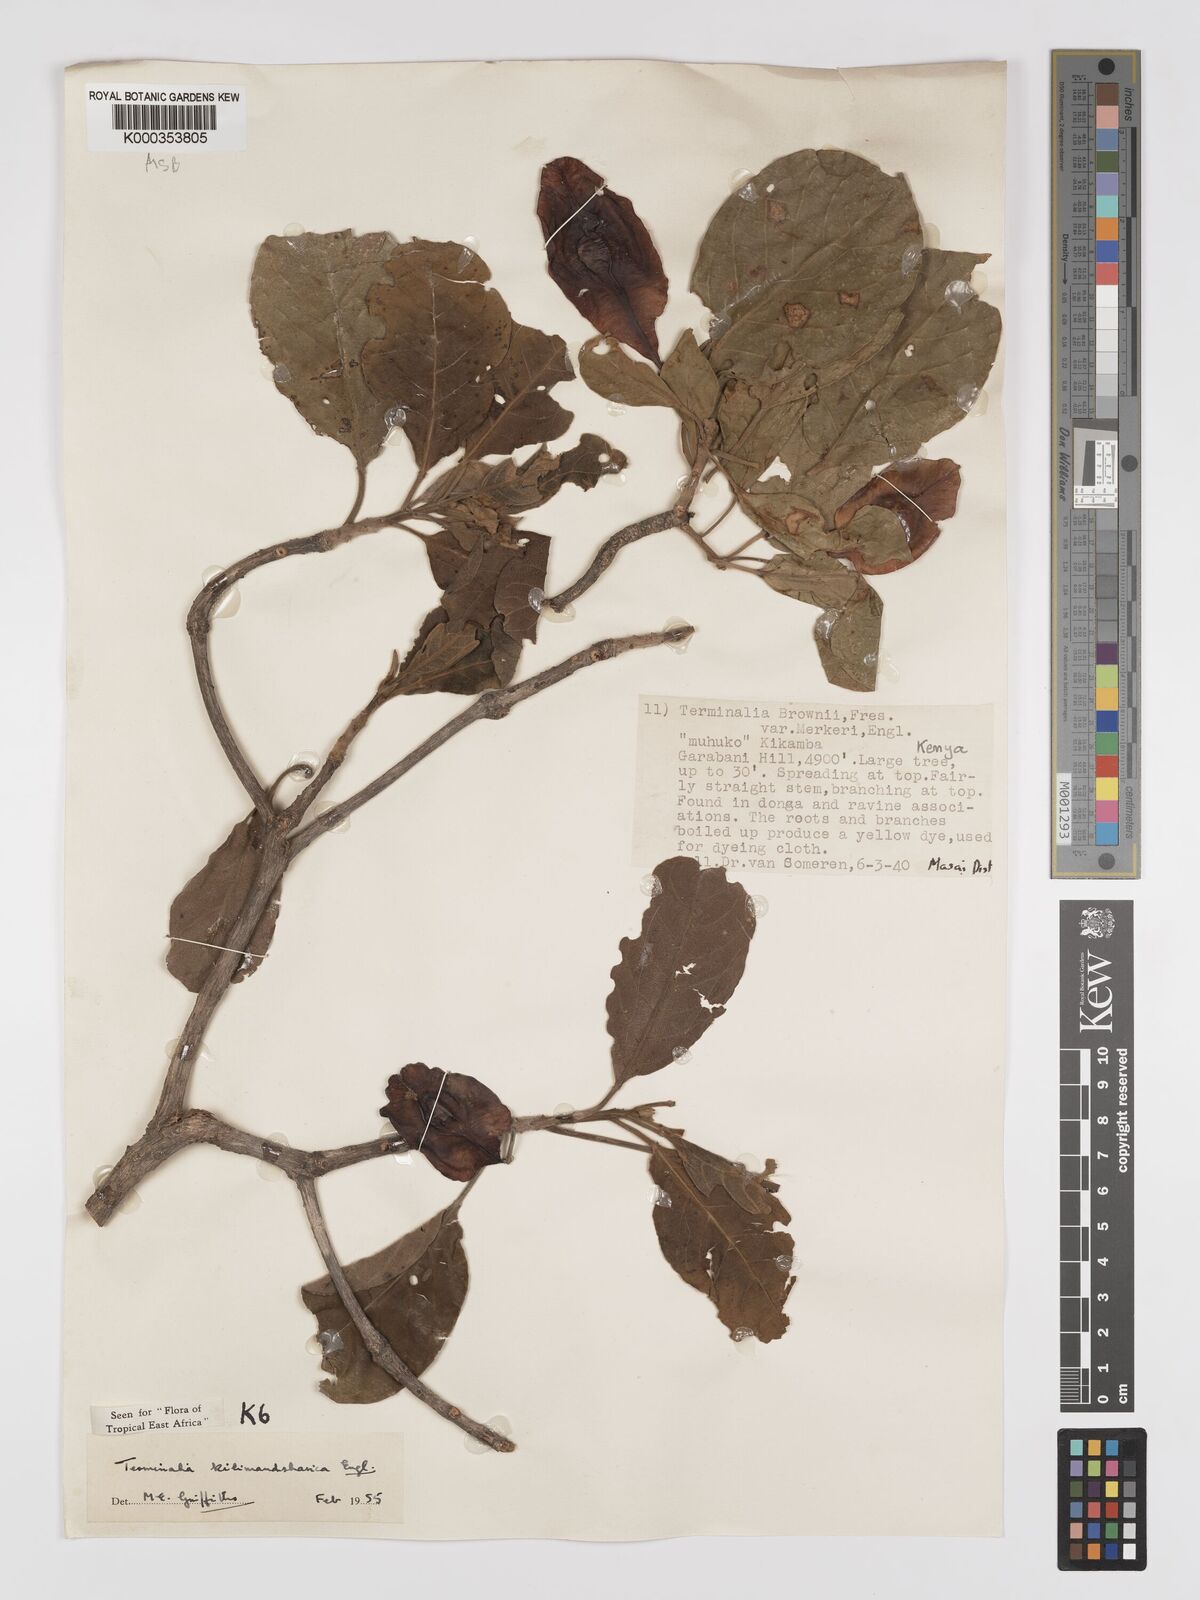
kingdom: Plantae
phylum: Tracheophyta
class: Magnoliopsida
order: Myrtales
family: Combretaceae
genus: Terminalia
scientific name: Terminalia kilimandscharica
